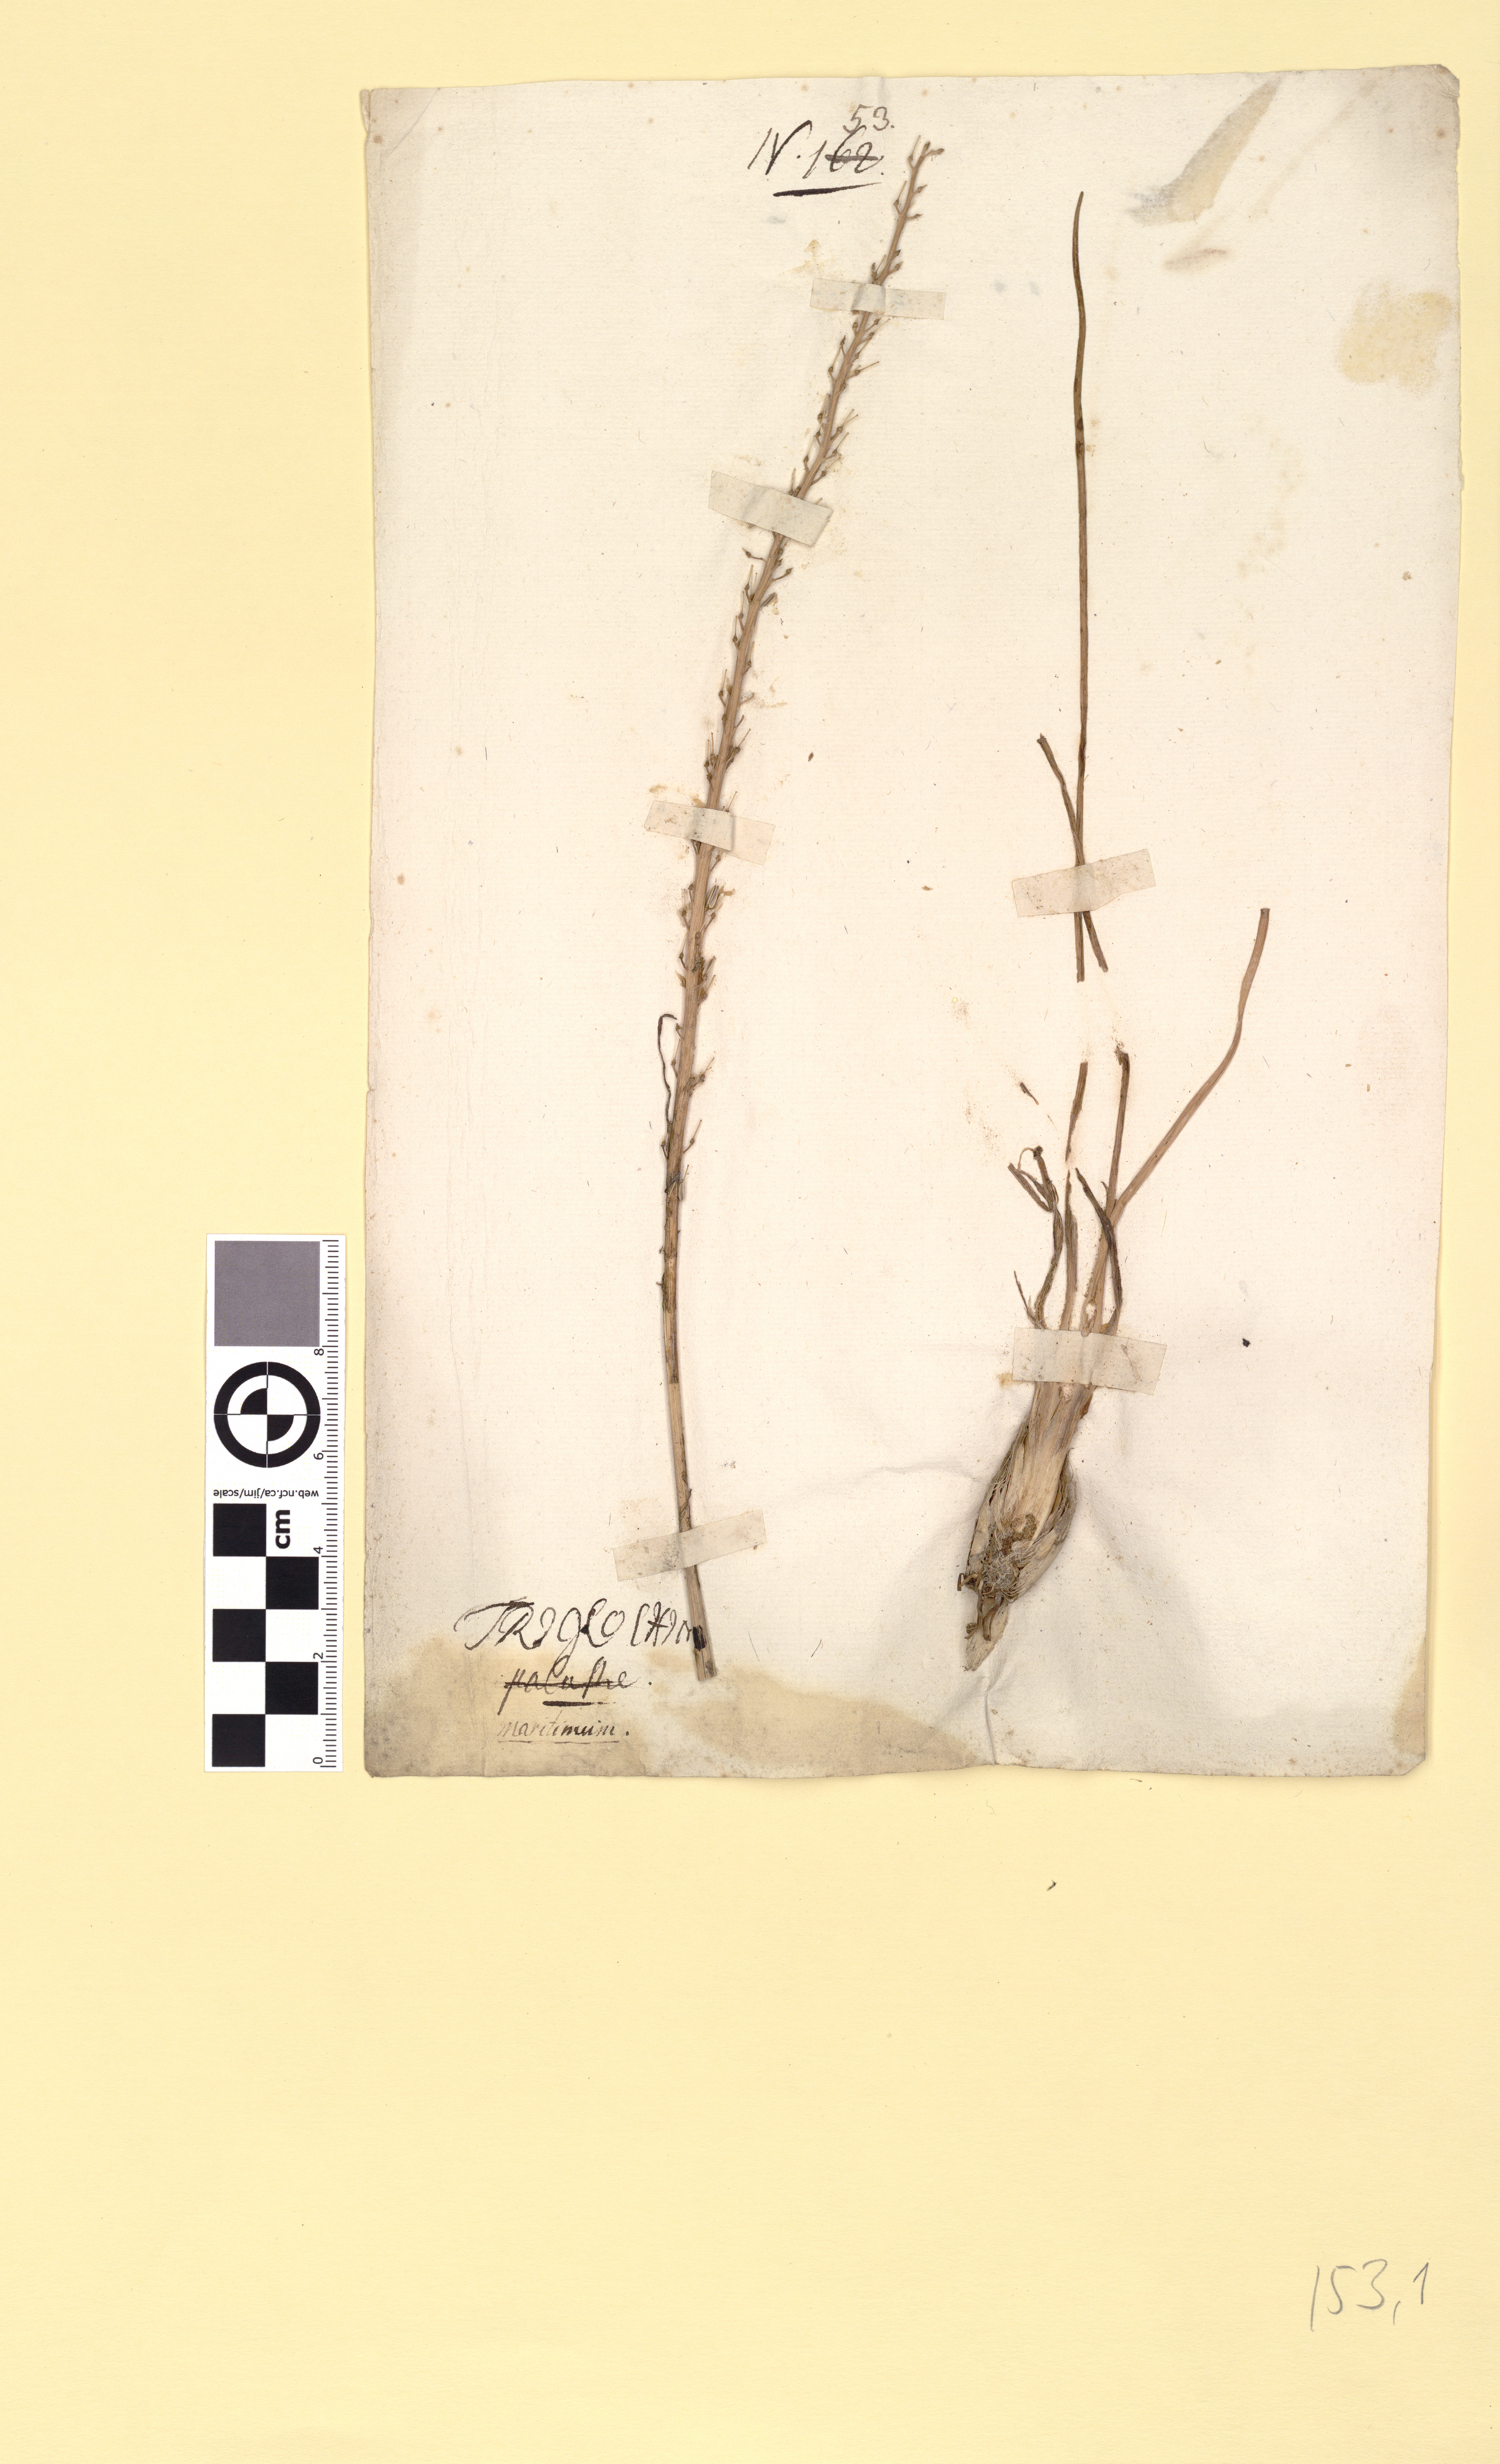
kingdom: Plantae
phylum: Tracheophyta
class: Liliopsida
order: Alismatales
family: Juncaginaceae
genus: Triglochin
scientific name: Triglochin maritima
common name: Sea arrowgrass
